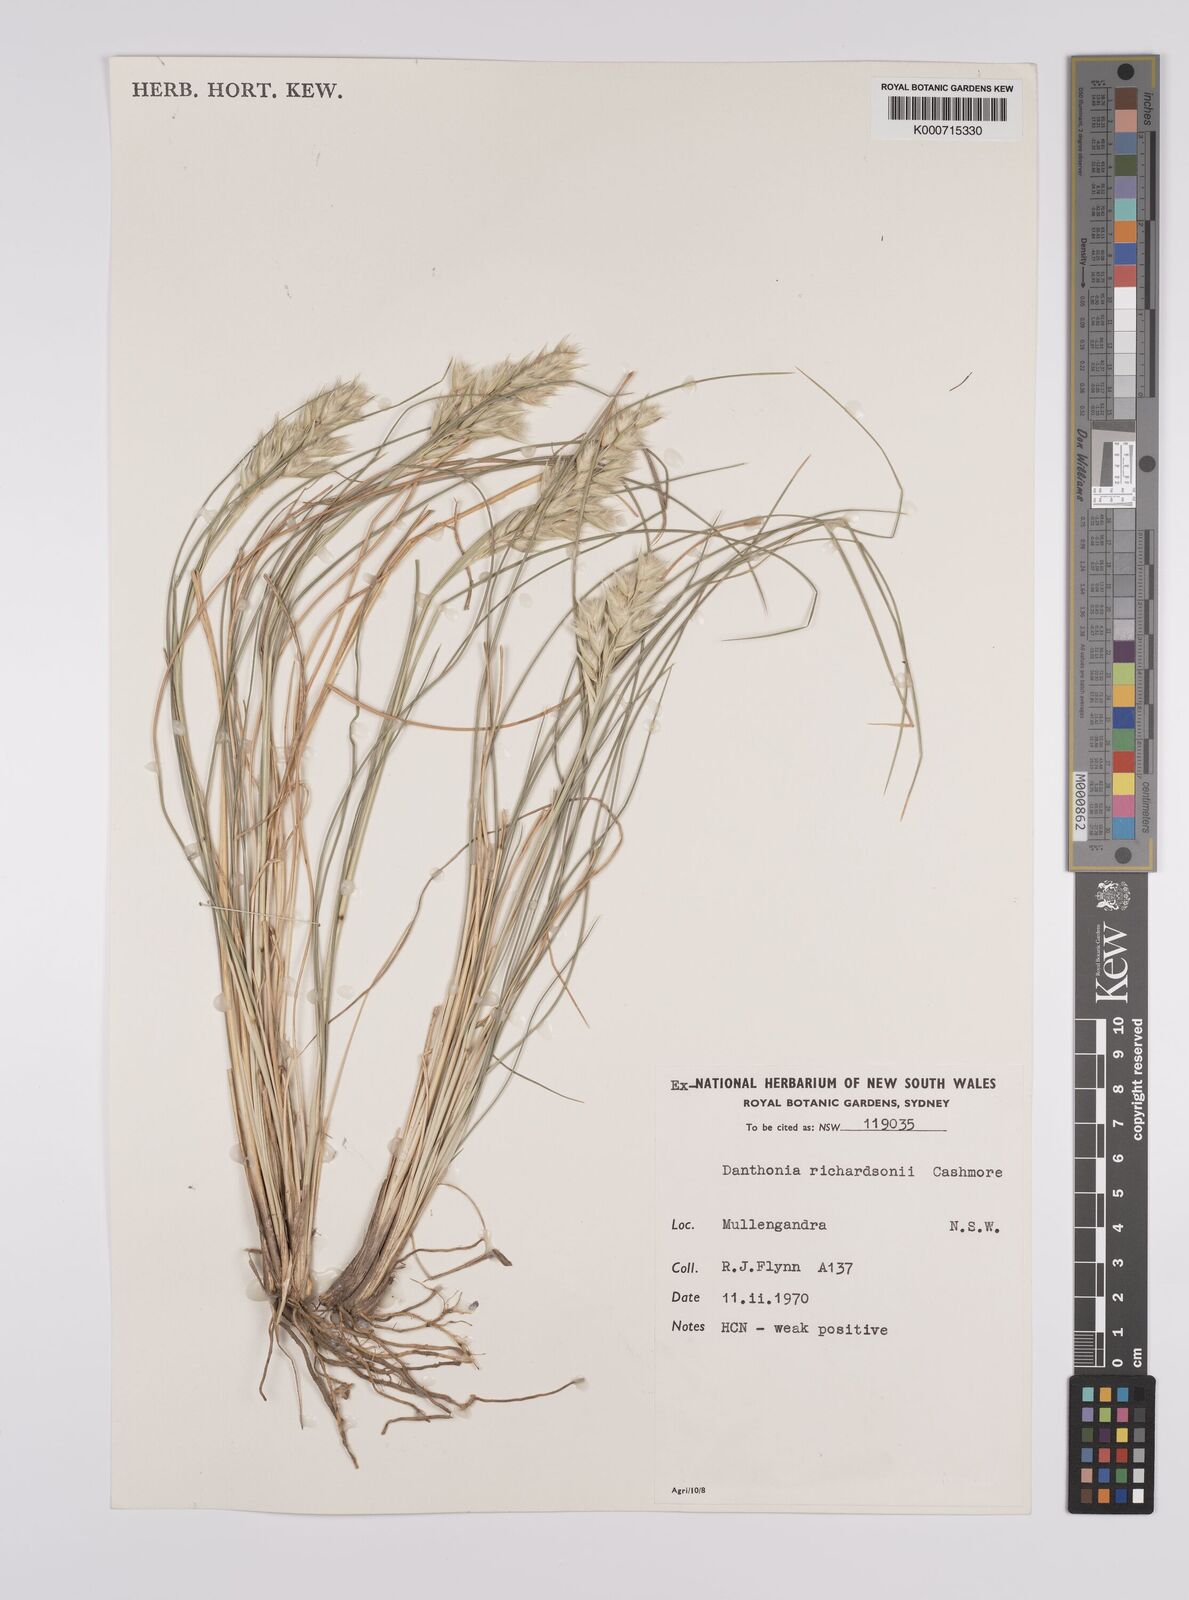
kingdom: Plantae
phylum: Tracheophyta
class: Liliopsida
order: Poales
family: Poaceae
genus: Rytidosperma
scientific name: Rytidosperma richardsonii
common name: Straw wallaby-grass
